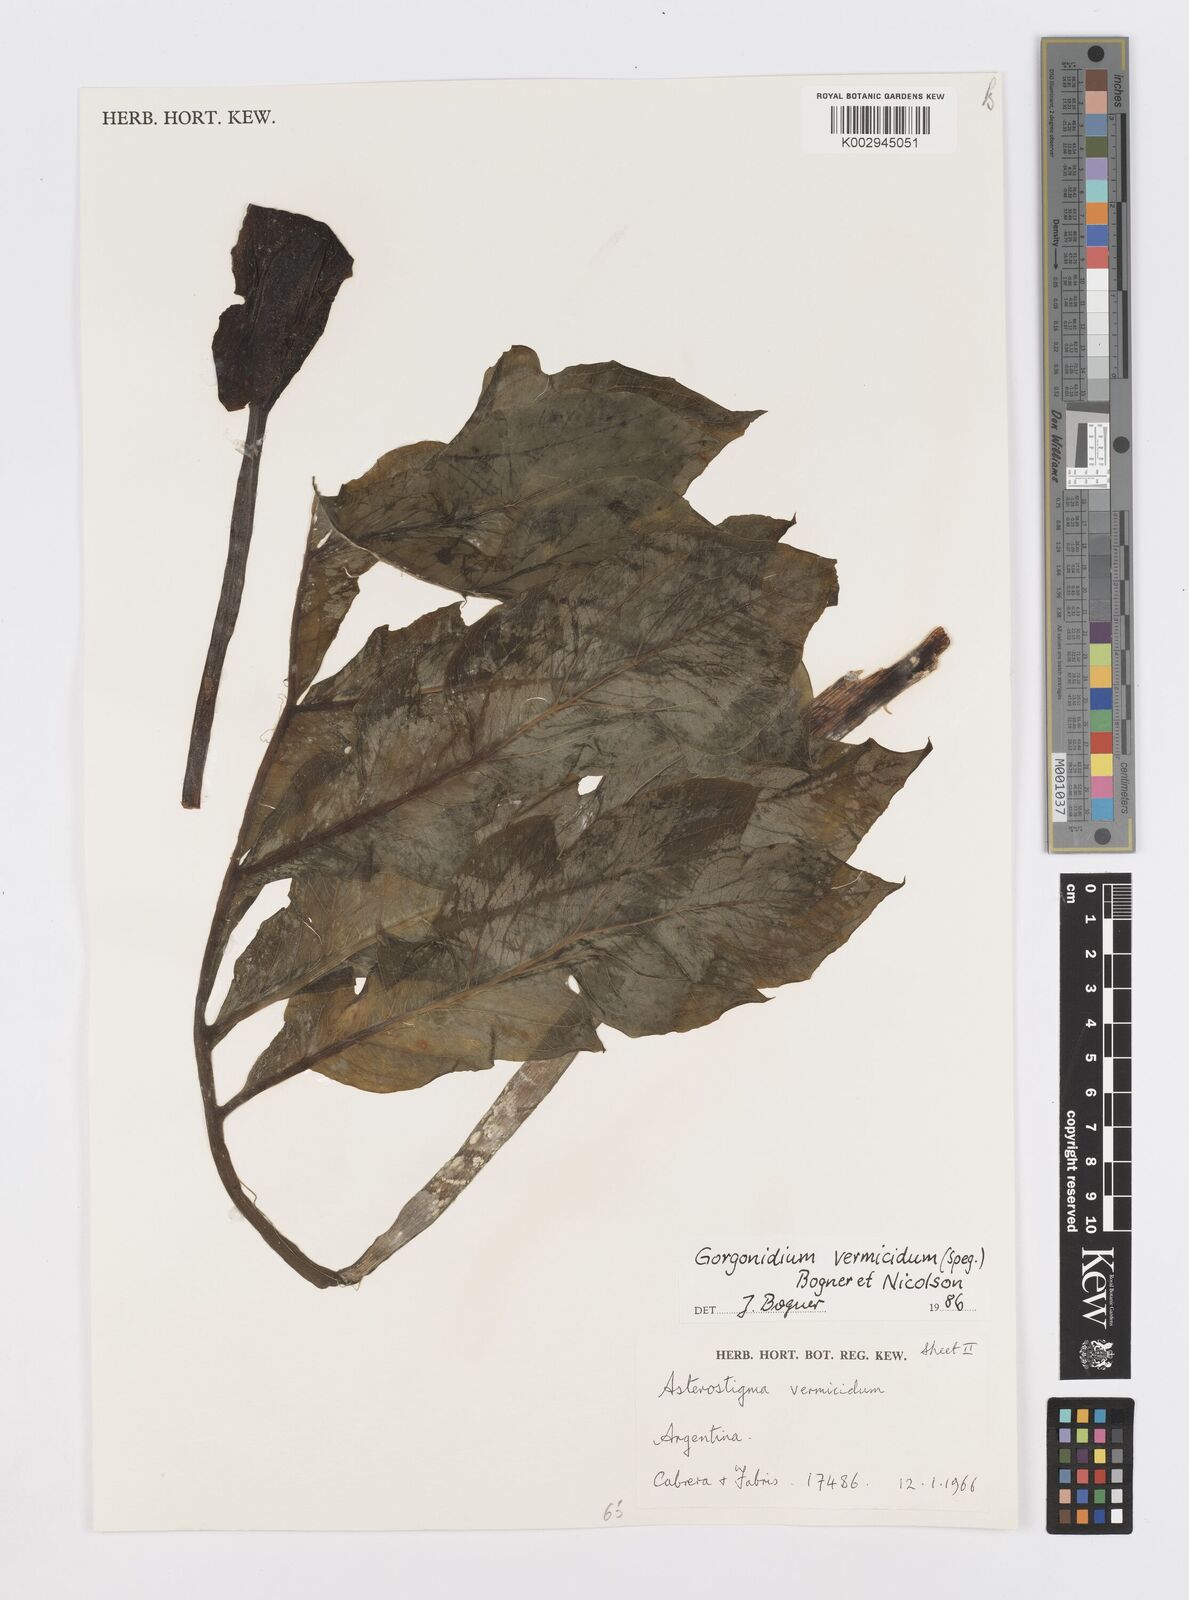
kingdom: Plantae
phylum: Tracheophyta
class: Liliopsida
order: Alismatales
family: Araceae
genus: Gorgonidium
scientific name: Gorgonidium vermicidum
